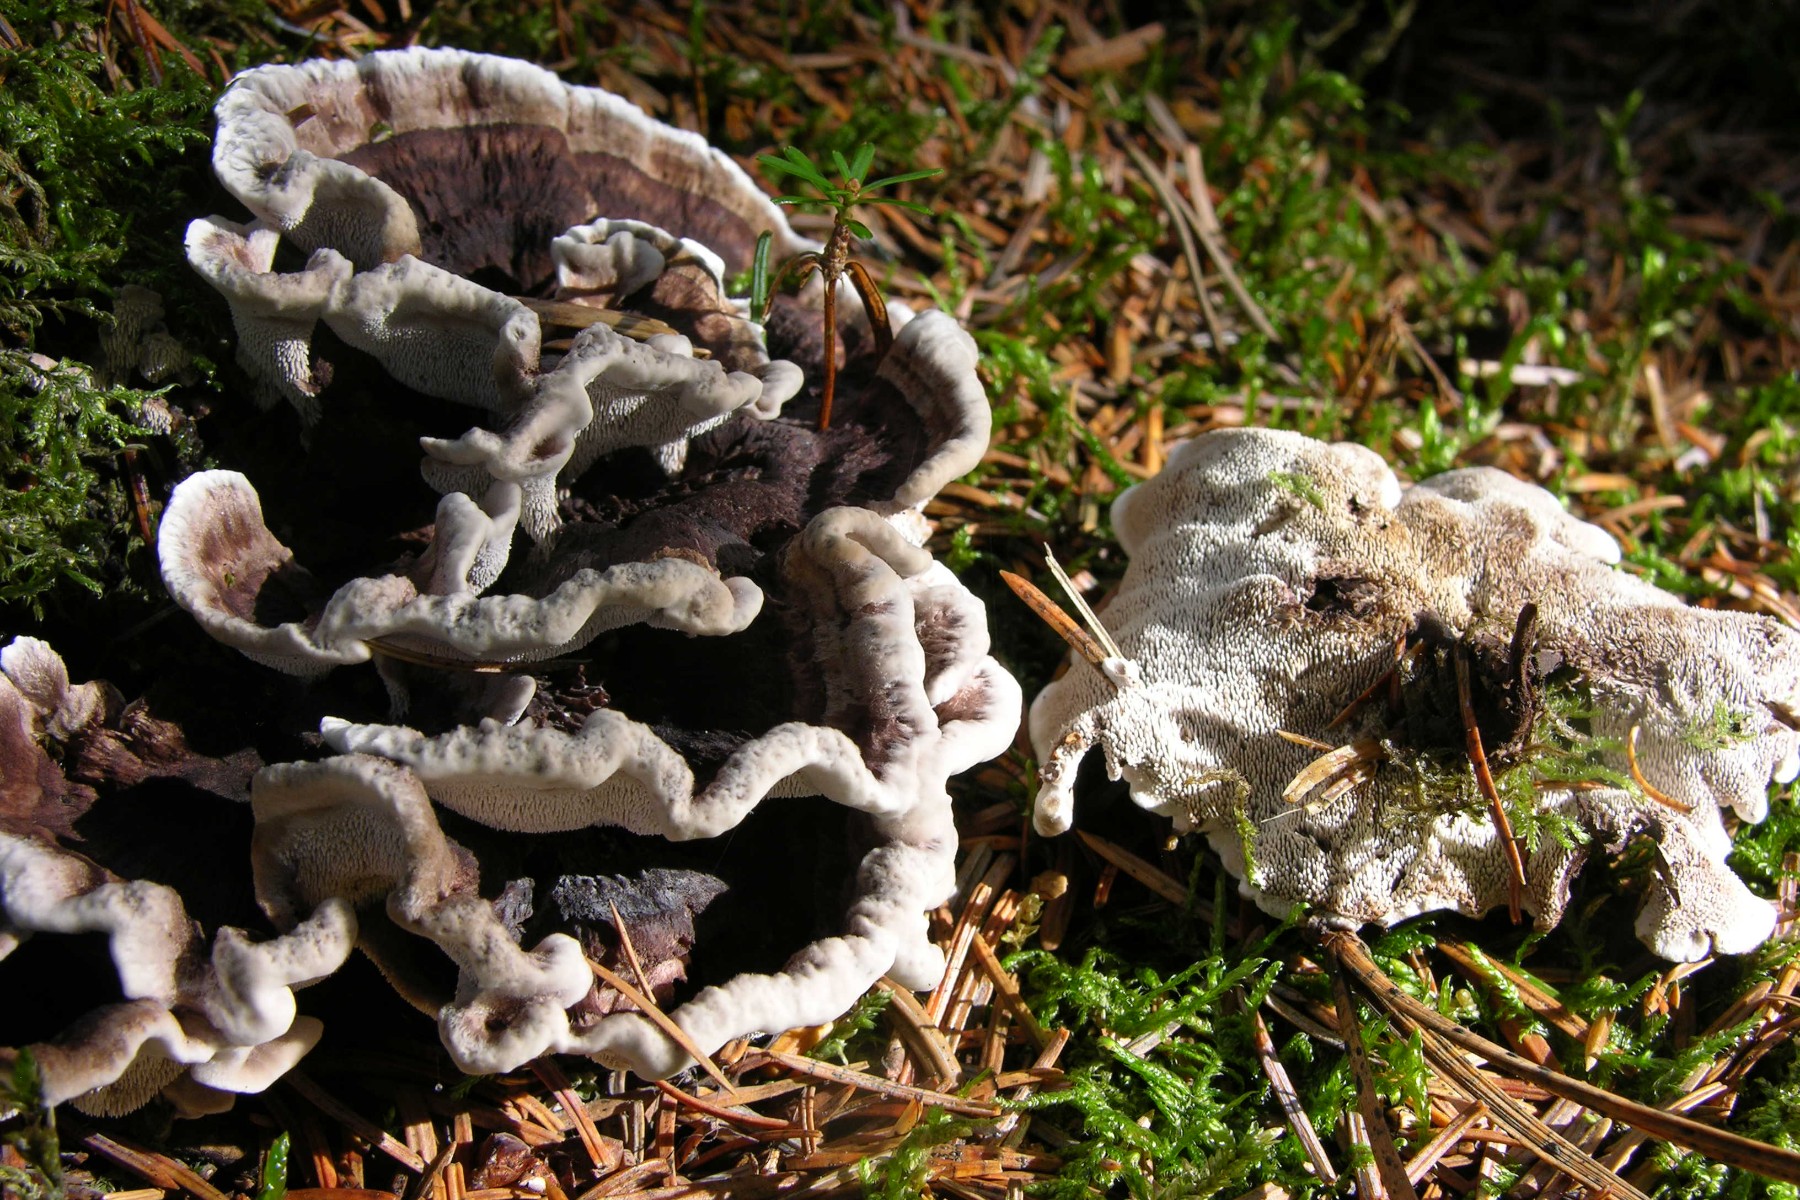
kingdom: Fungi
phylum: Basidiomycota
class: Agaricomycetes
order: Thelephorales
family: Thelephoraceae
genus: Phellodon
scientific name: Phellodon tomentosus
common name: vellugtende duftpigsvamp
